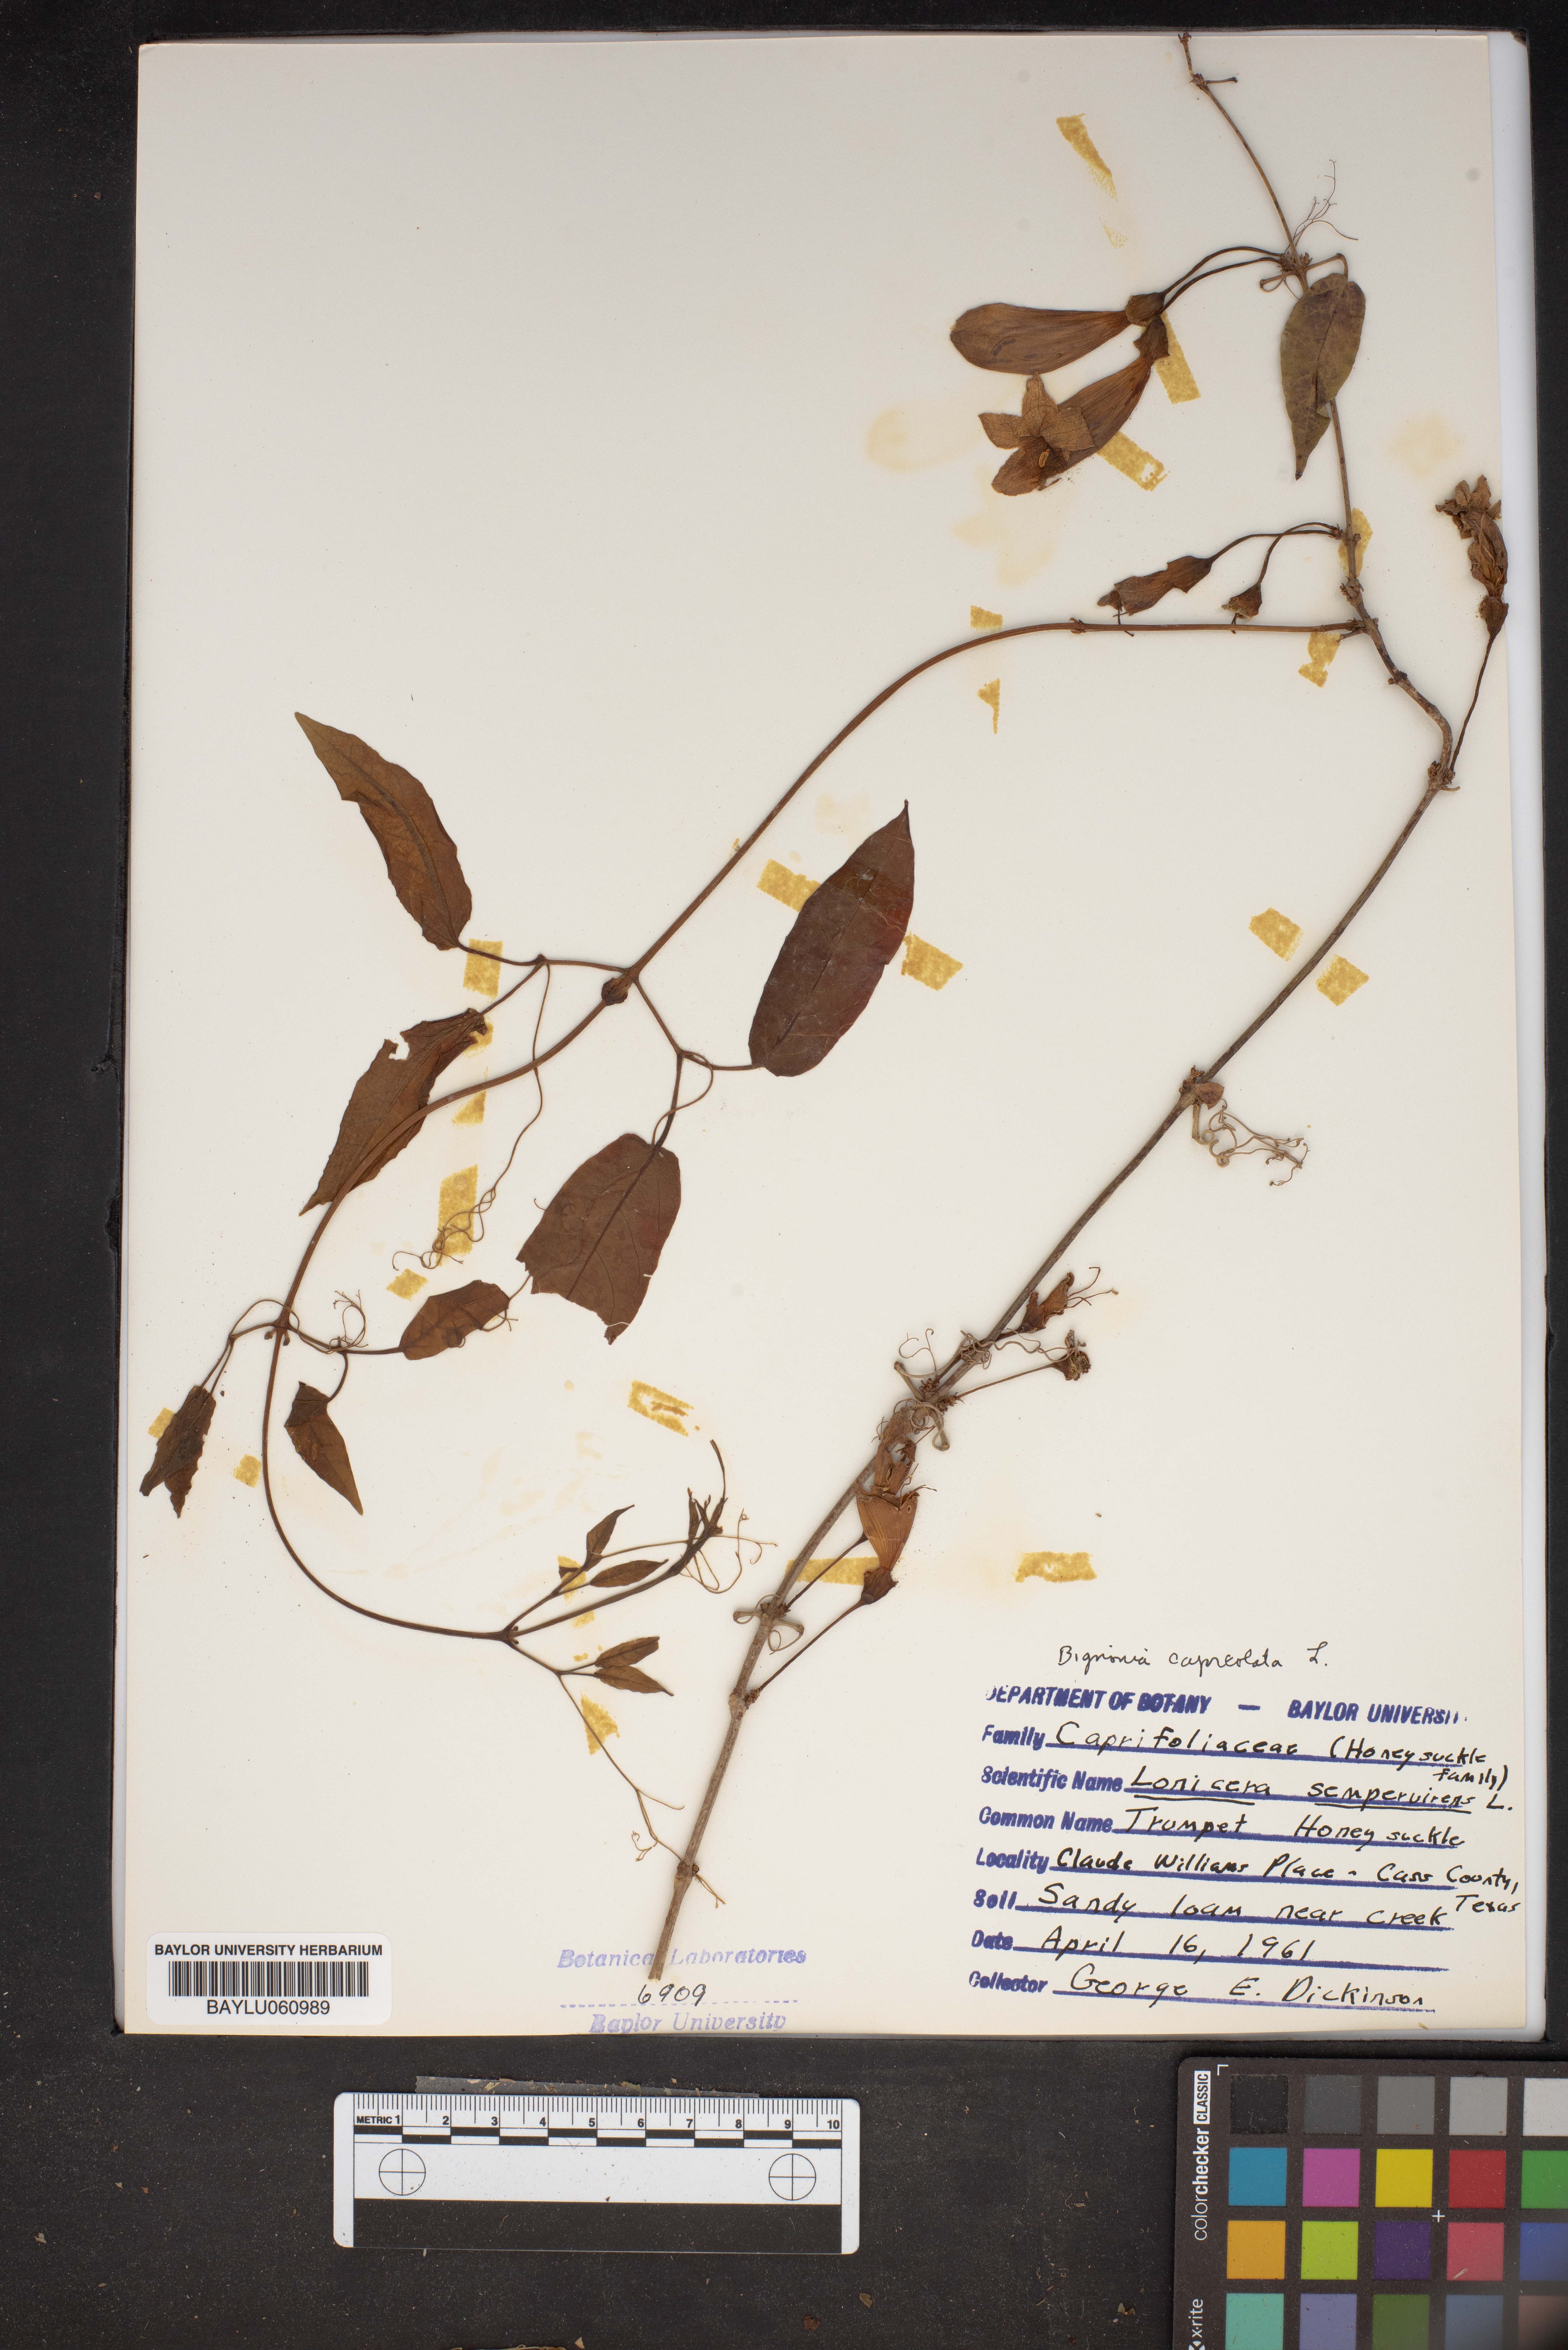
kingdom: Plantae
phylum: Tracheophyta
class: Magnoliopsida
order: Dipsacales
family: Caprifoliaceae
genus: Lonicera
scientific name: Lonicera sempervirens
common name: Coral honeysuckle
